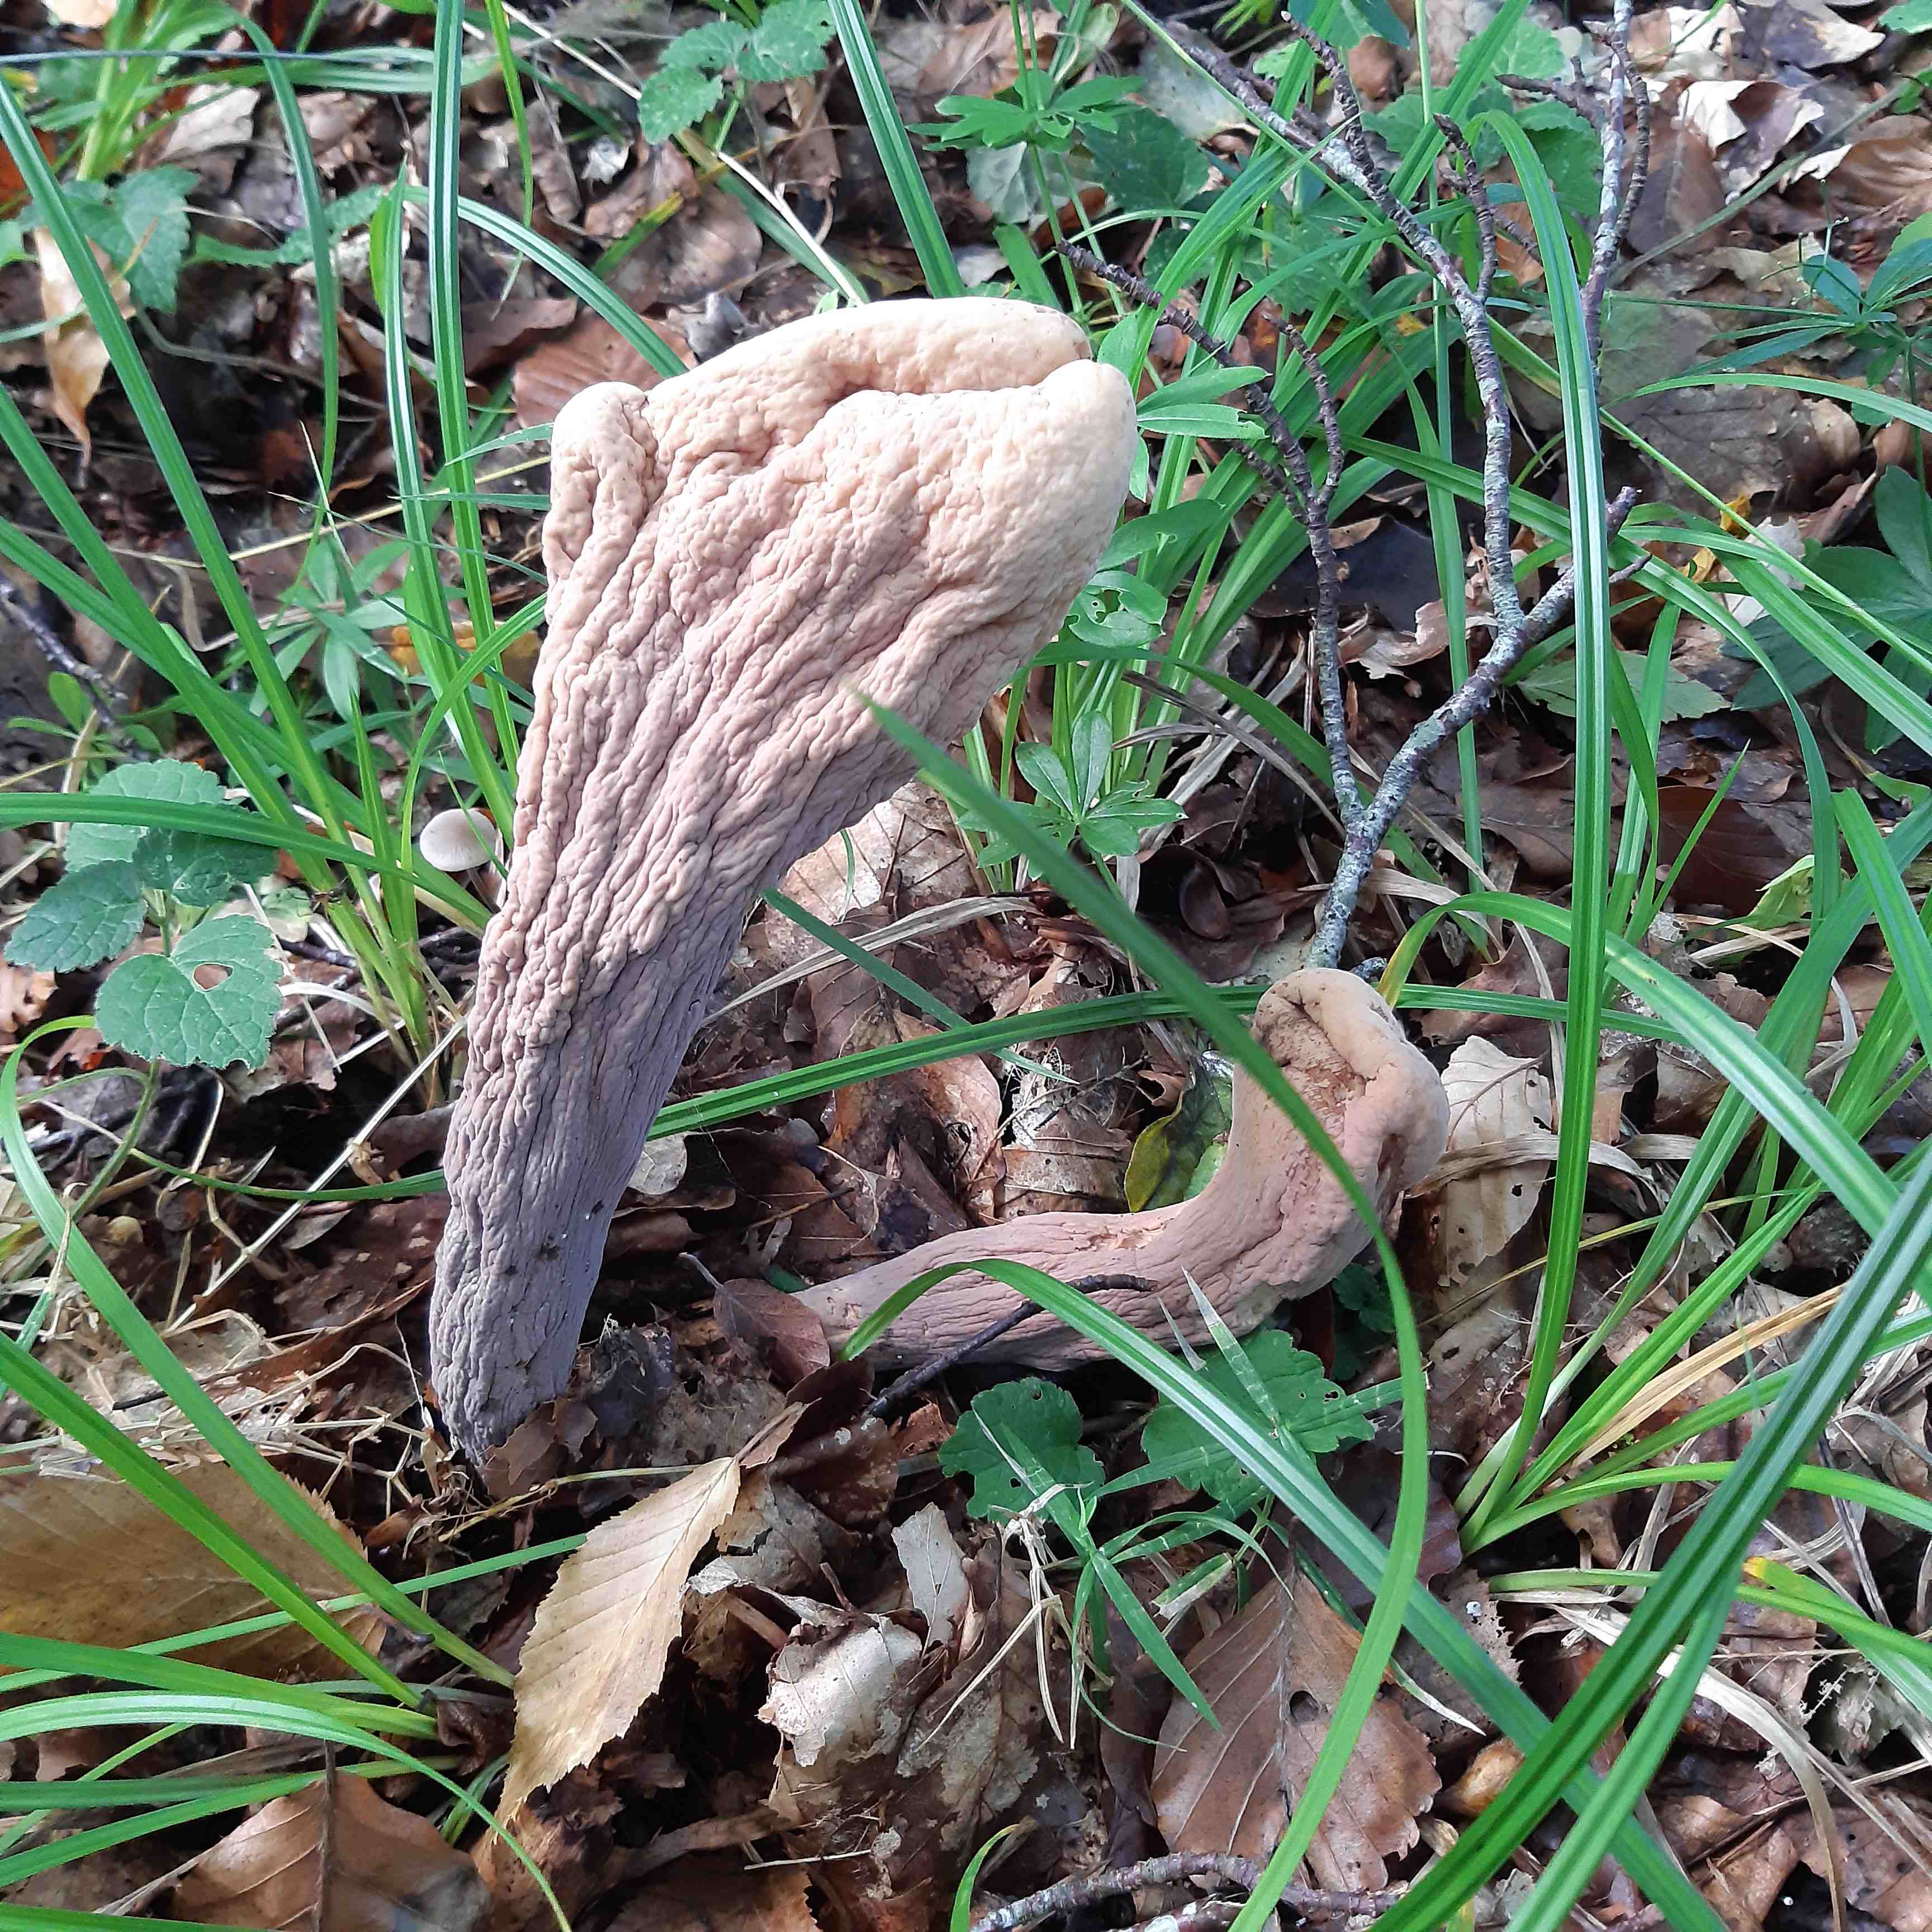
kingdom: Fungi
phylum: Basidiomycota
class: Agaricomycetes
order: Gomphales
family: Clavariadelphaceae
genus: Clavariadelphus
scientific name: Clavariadelphus pistillaris
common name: herkules-kæmpekølle
